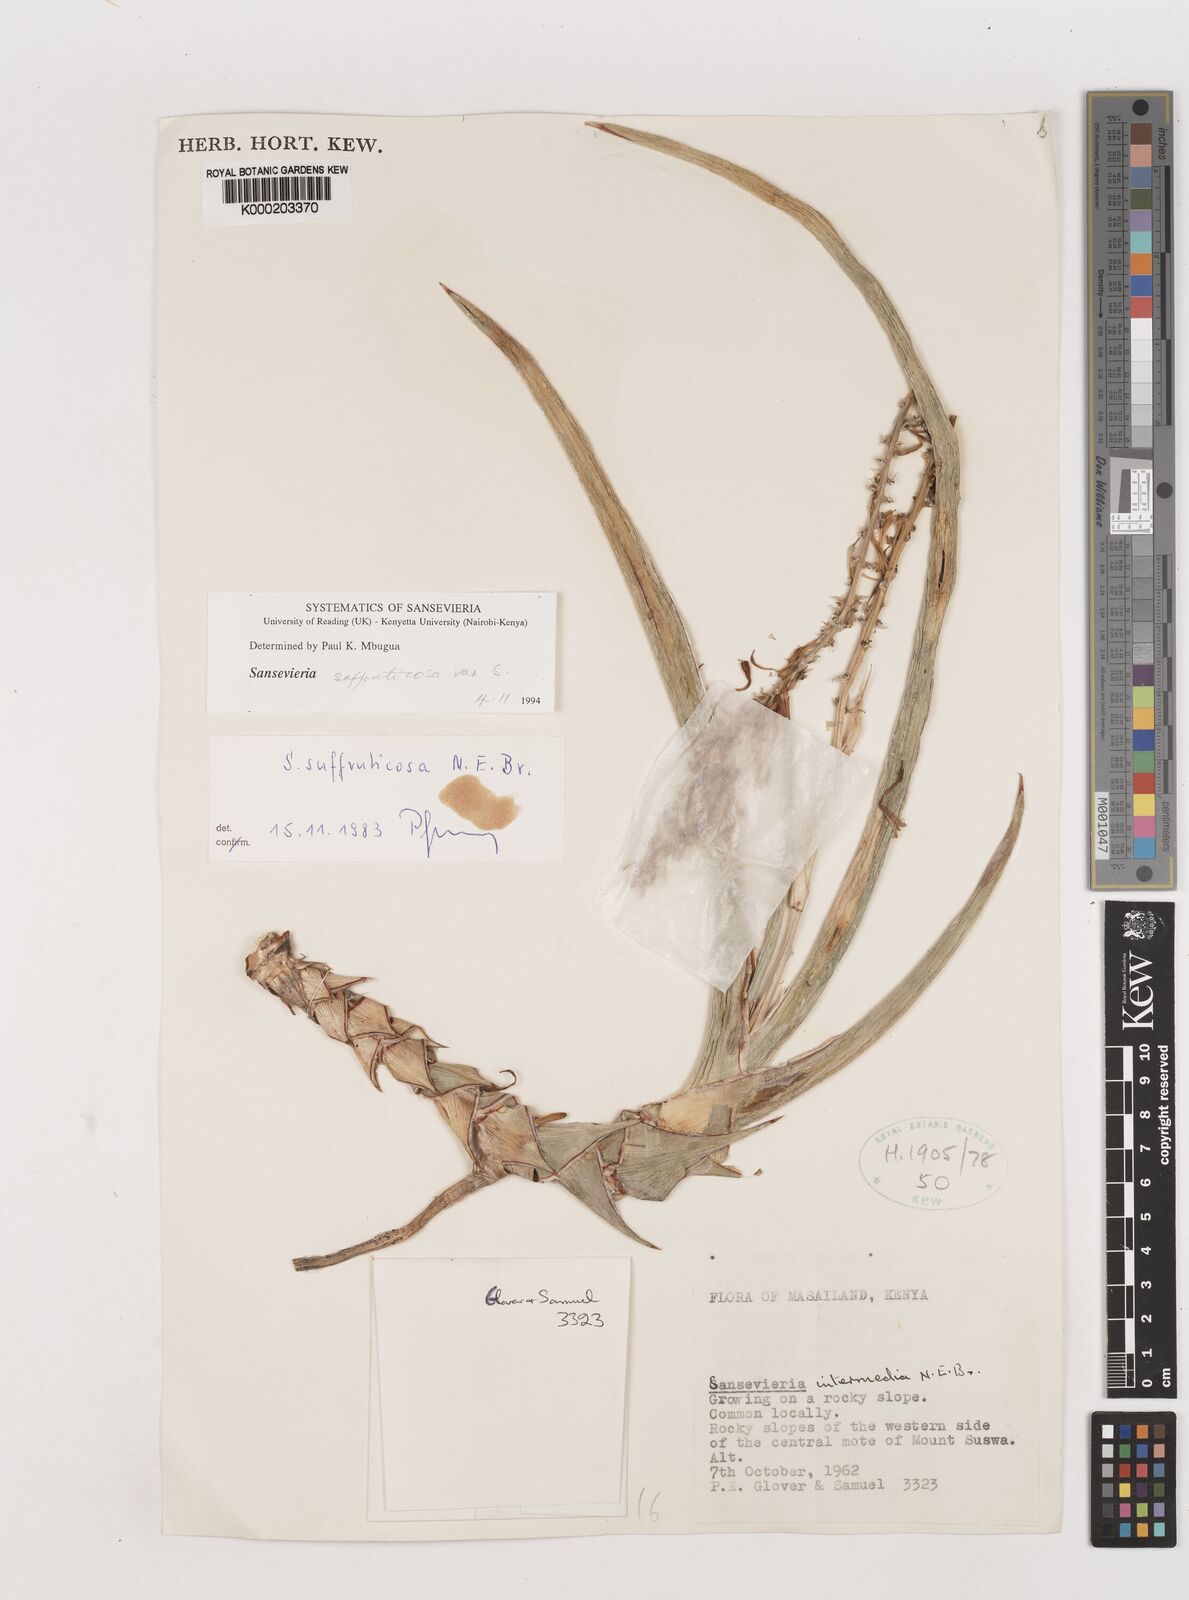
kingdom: Plantae
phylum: Tracheophyta
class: Liliopsida
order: Asparagales
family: Asparagaceae
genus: Dracaena
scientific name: Dracaena suffruticosa
